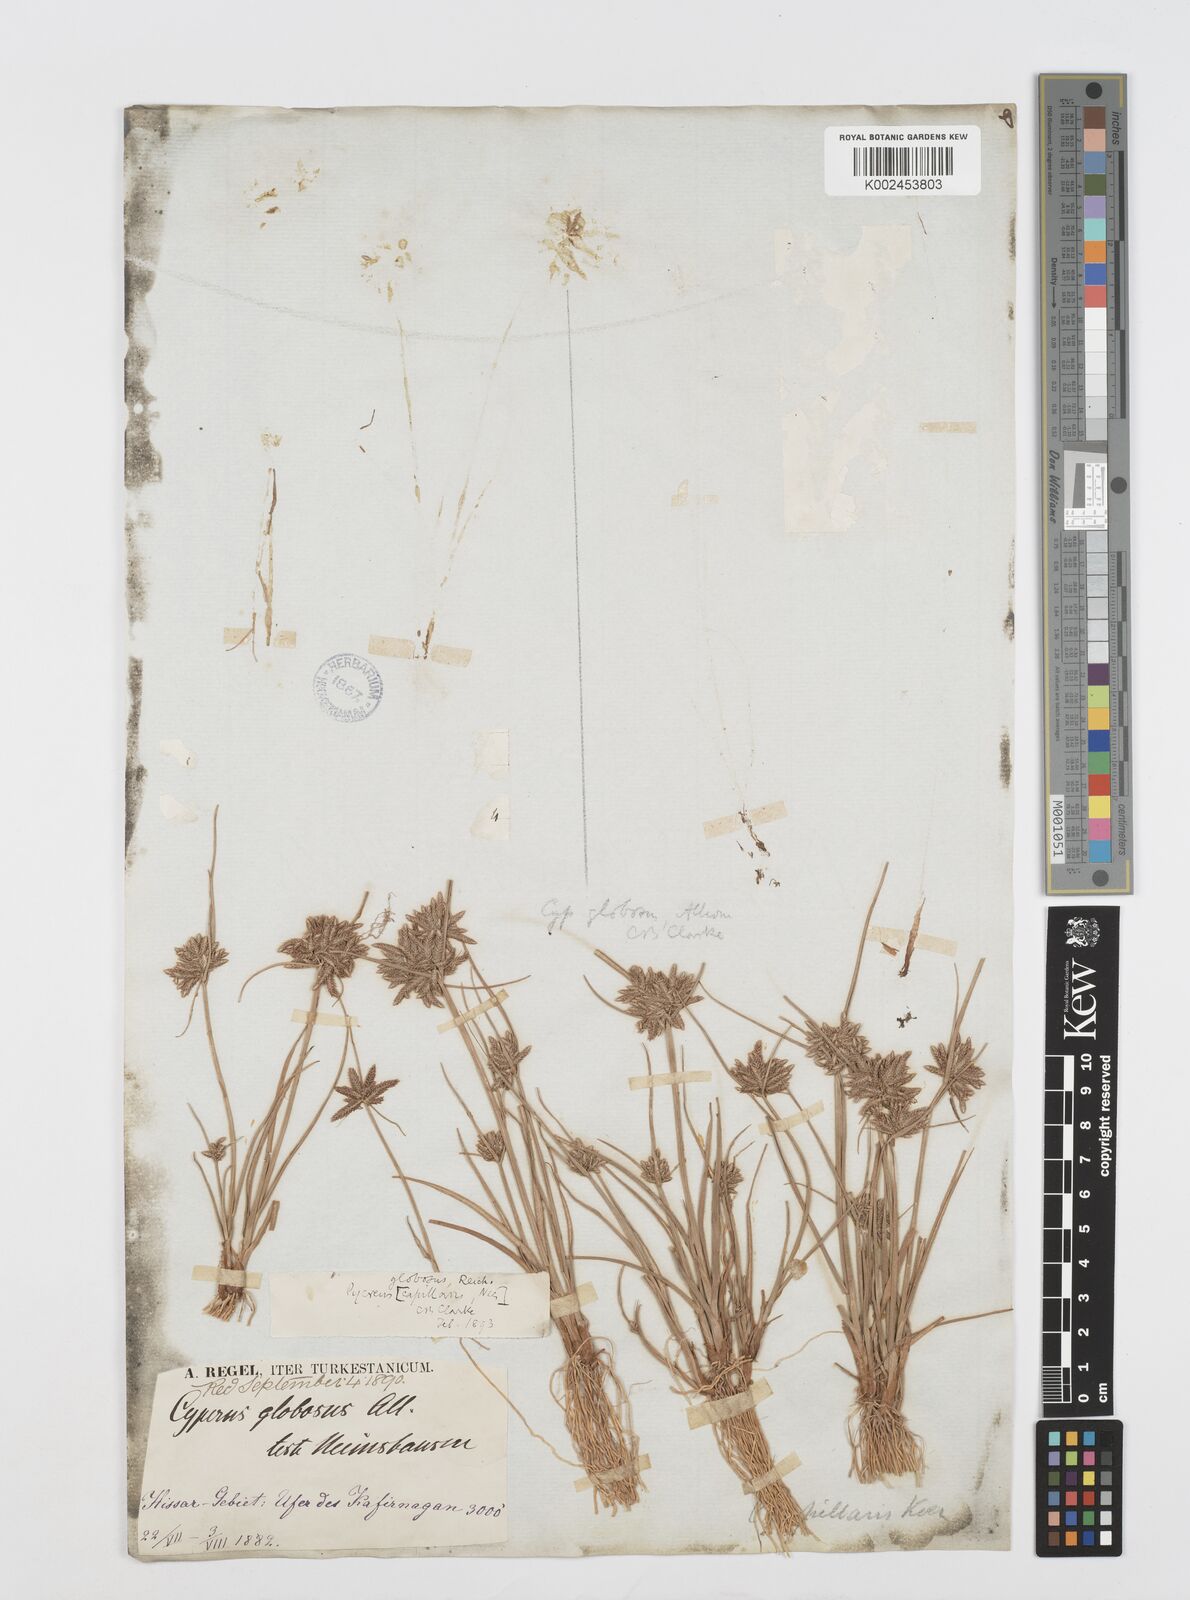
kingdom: Plantae
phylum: Tracheophyta
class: Liliopsida
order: Poales
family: Cyperaceae
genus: Cyperus
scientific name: Cyperus flavidus
